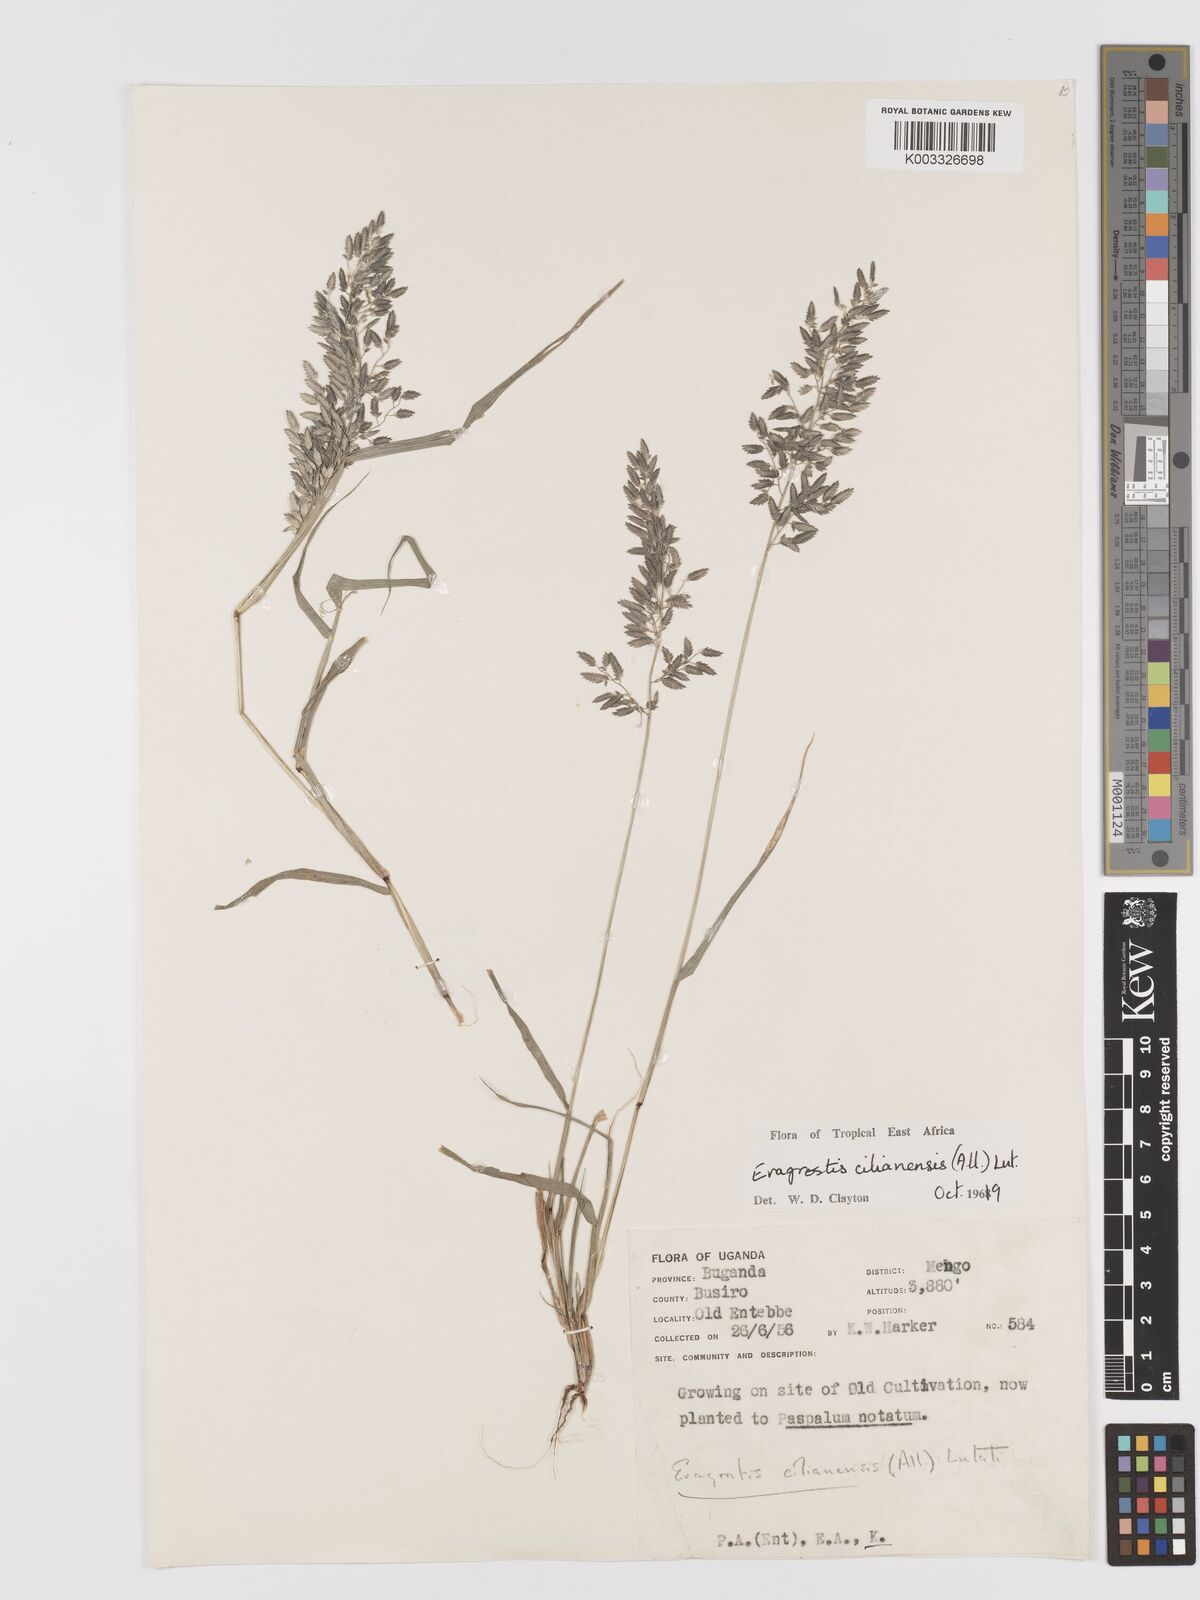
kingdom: Plantae
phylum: Tracheophyta
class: Liliopsida
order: Poales
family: Poaceae
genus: Eragrostis
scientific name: Eragrostis cilianensis
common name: Stinkgrass
